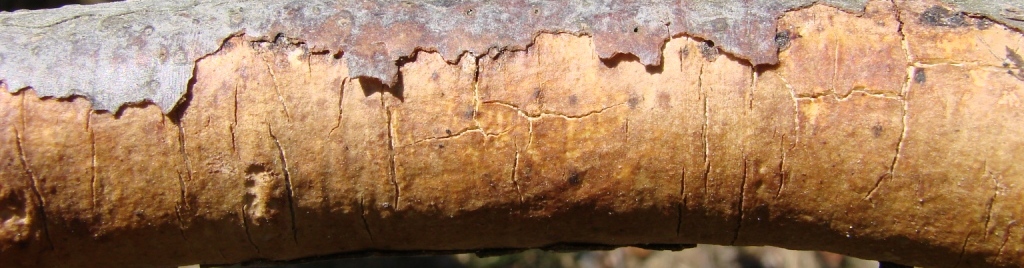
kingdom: Fungi
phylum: Basidiomycota
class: Agaricomycetes
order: Corticiales
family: Vuilleminiaceae
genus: Vuilleminia
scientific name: Vuilleminia comedens
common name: almindelig barksprænger
